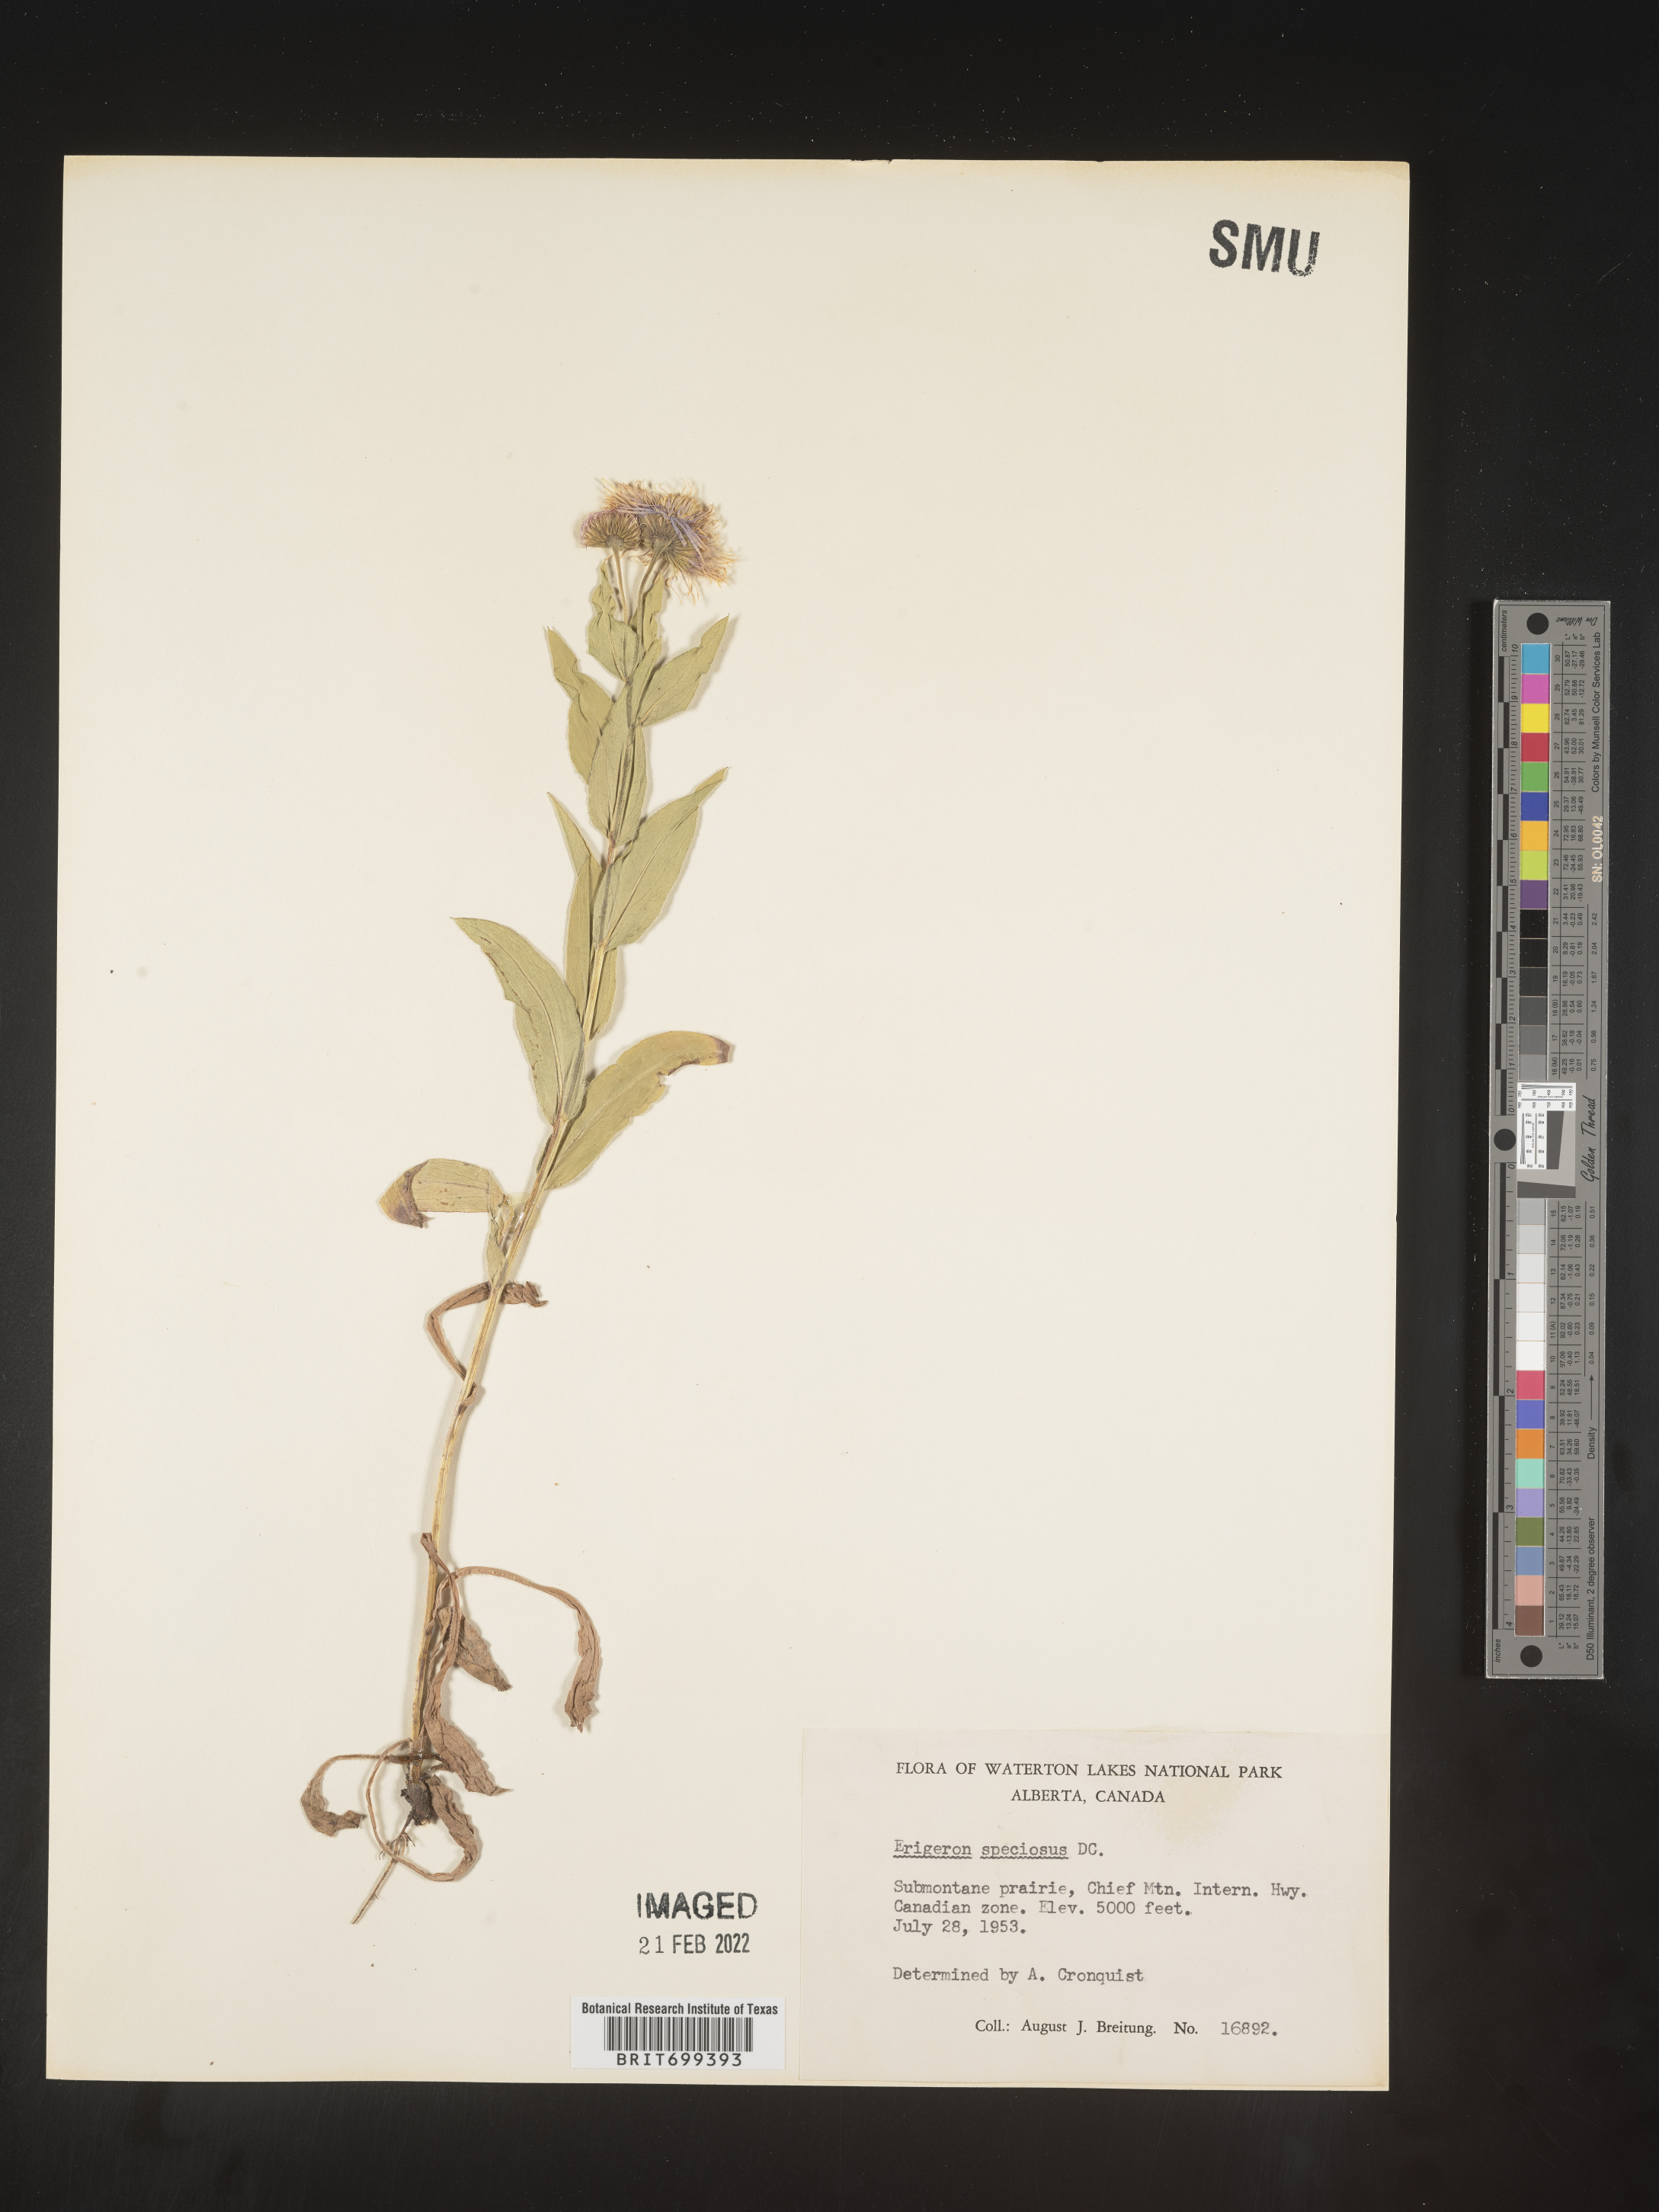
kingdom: Plantae
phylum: Tracheophyta
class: Magnoliopsida
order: Asterales
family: Asteraceae
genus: Erigeron
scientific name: Erigeron speciosus
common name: Aspen fleabane
